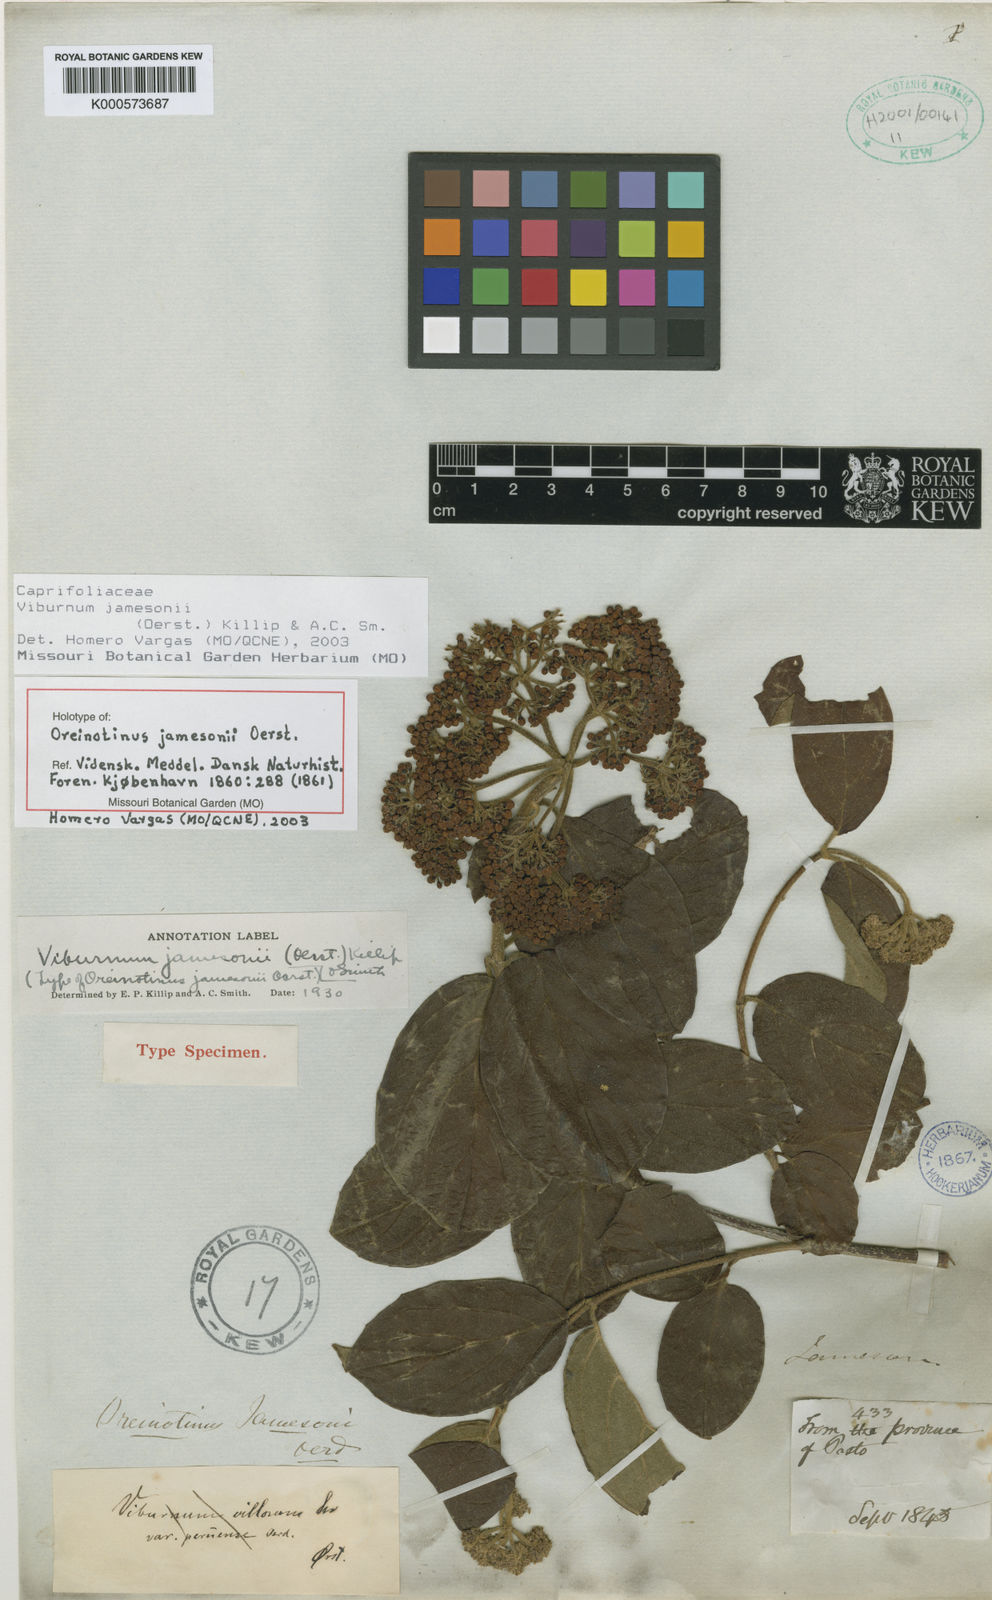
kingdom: Plantae
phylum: Tracheophyta
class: Magnoliopsida
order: Dipsacales
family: Viburnaceae
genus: Viburnum
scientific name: Viburnum jamesonii
